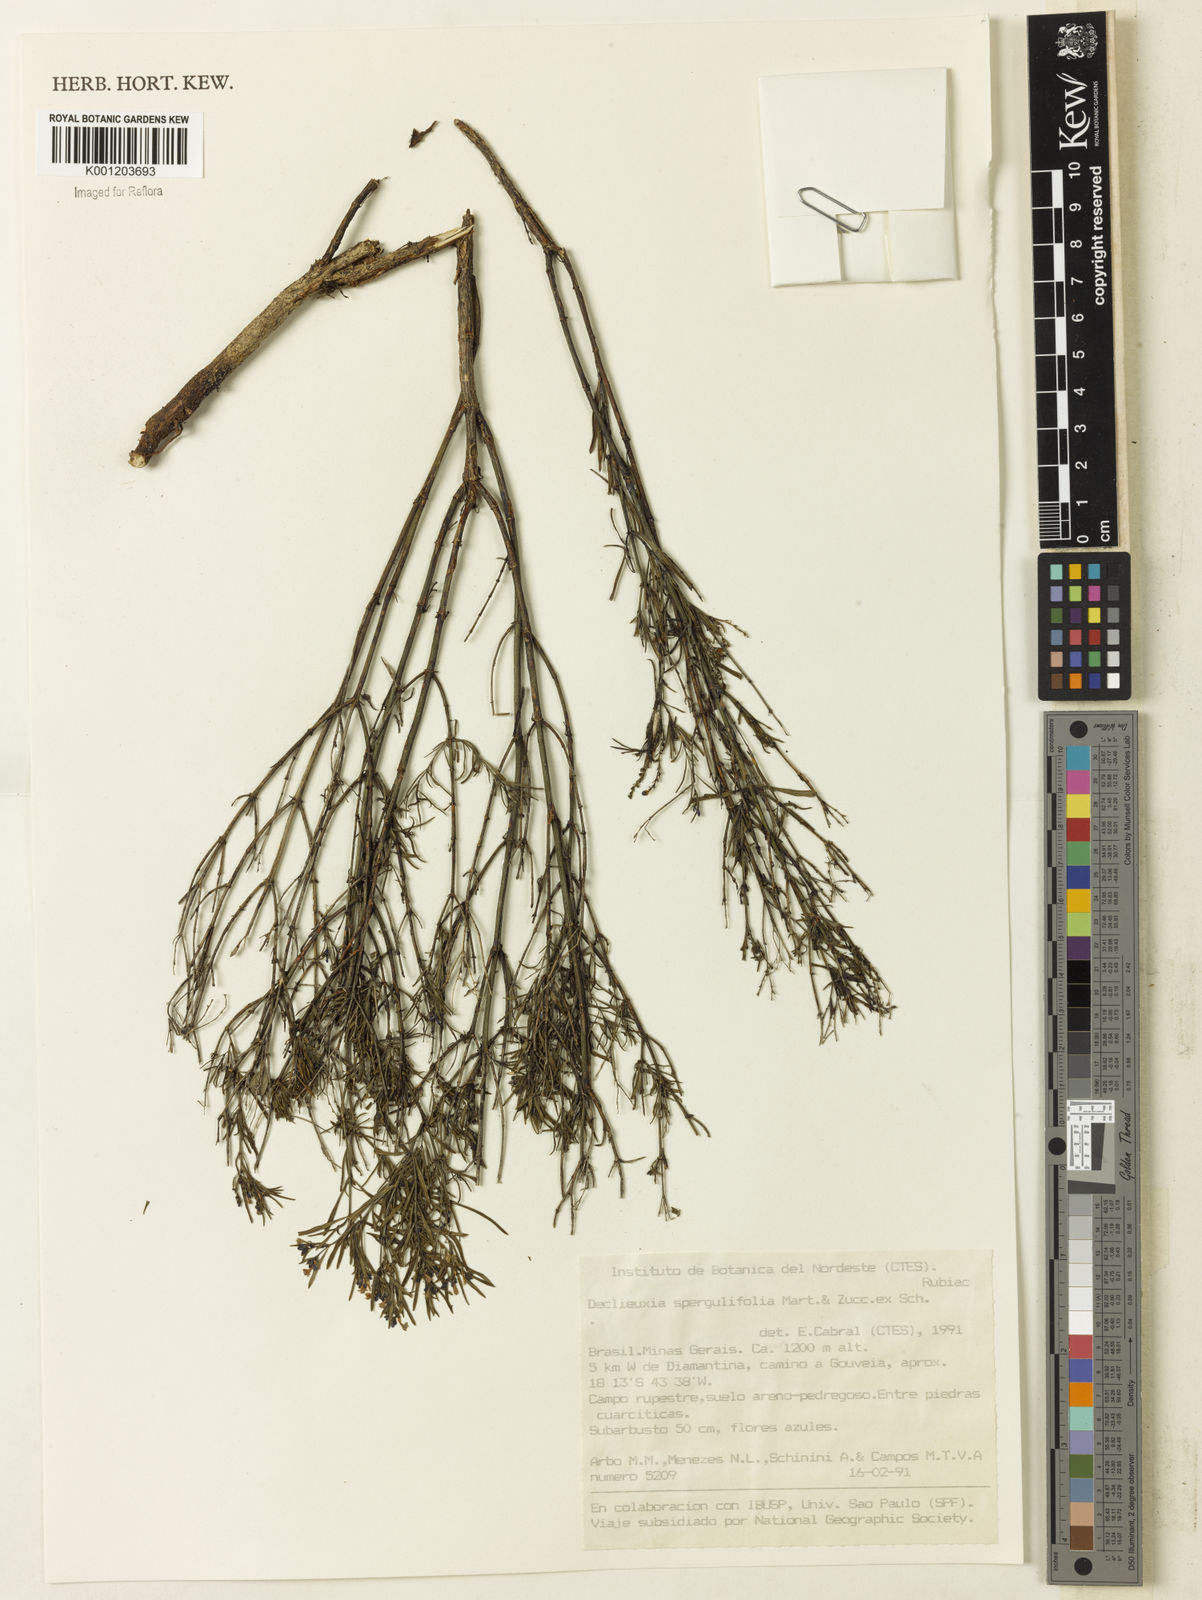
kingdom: Plantae
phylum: Tracheophyta
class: Magnoliopsida
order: Gentianales
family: Rubiaceae
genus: Declieuxia
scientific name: Declieuxia
